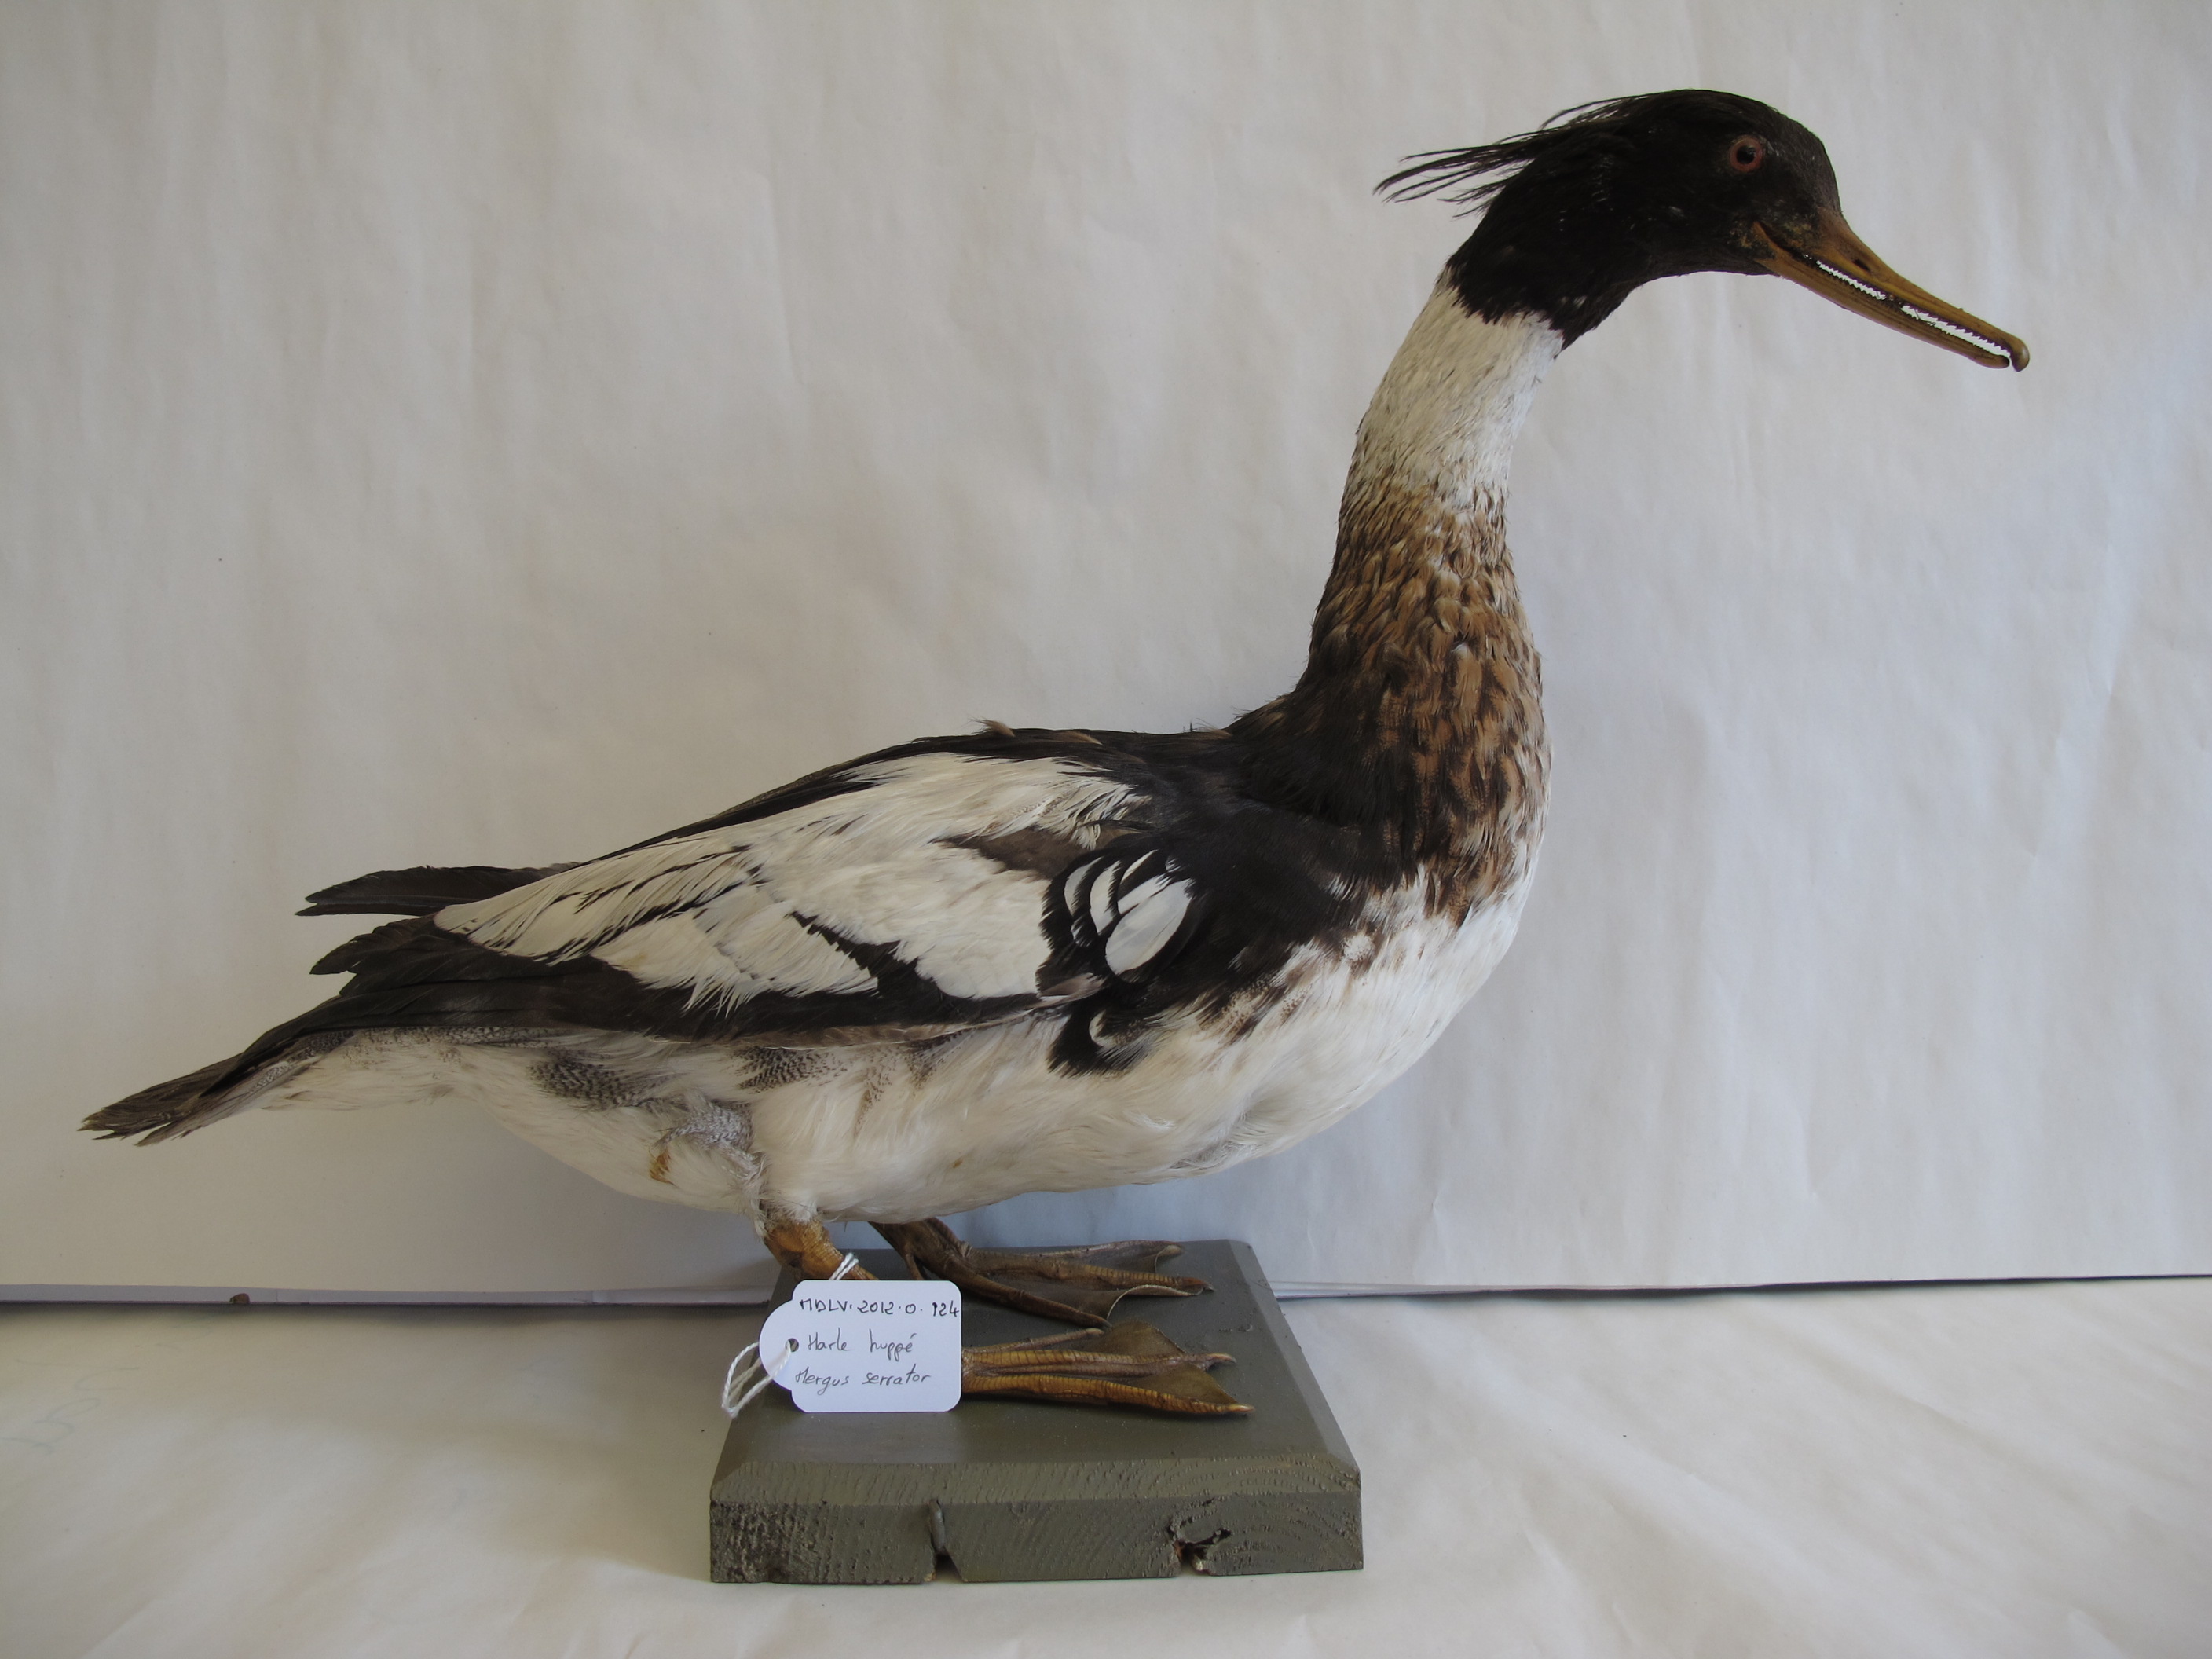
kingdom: Animalia
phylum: Chordata
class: Aves
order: Anseriformes
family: Anatidae
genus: Mergus
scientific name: Mergus serrator
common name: Red-breasted Merganser
